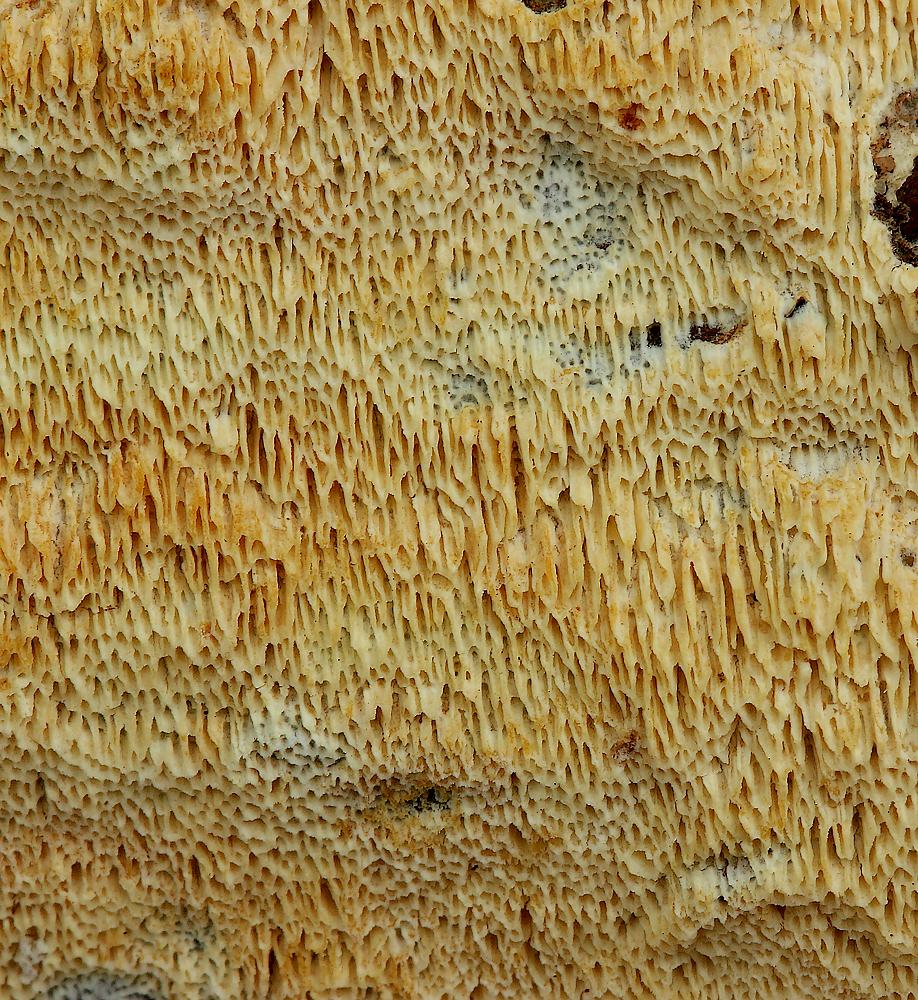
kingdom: Fungi
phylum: Basidiomycota
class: Agaricomycetes
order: Hymenochaetales
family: Schizoporaceae
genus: Xylodon
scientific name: Xylodon subtropicus
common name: labyrint-tandsvamp
